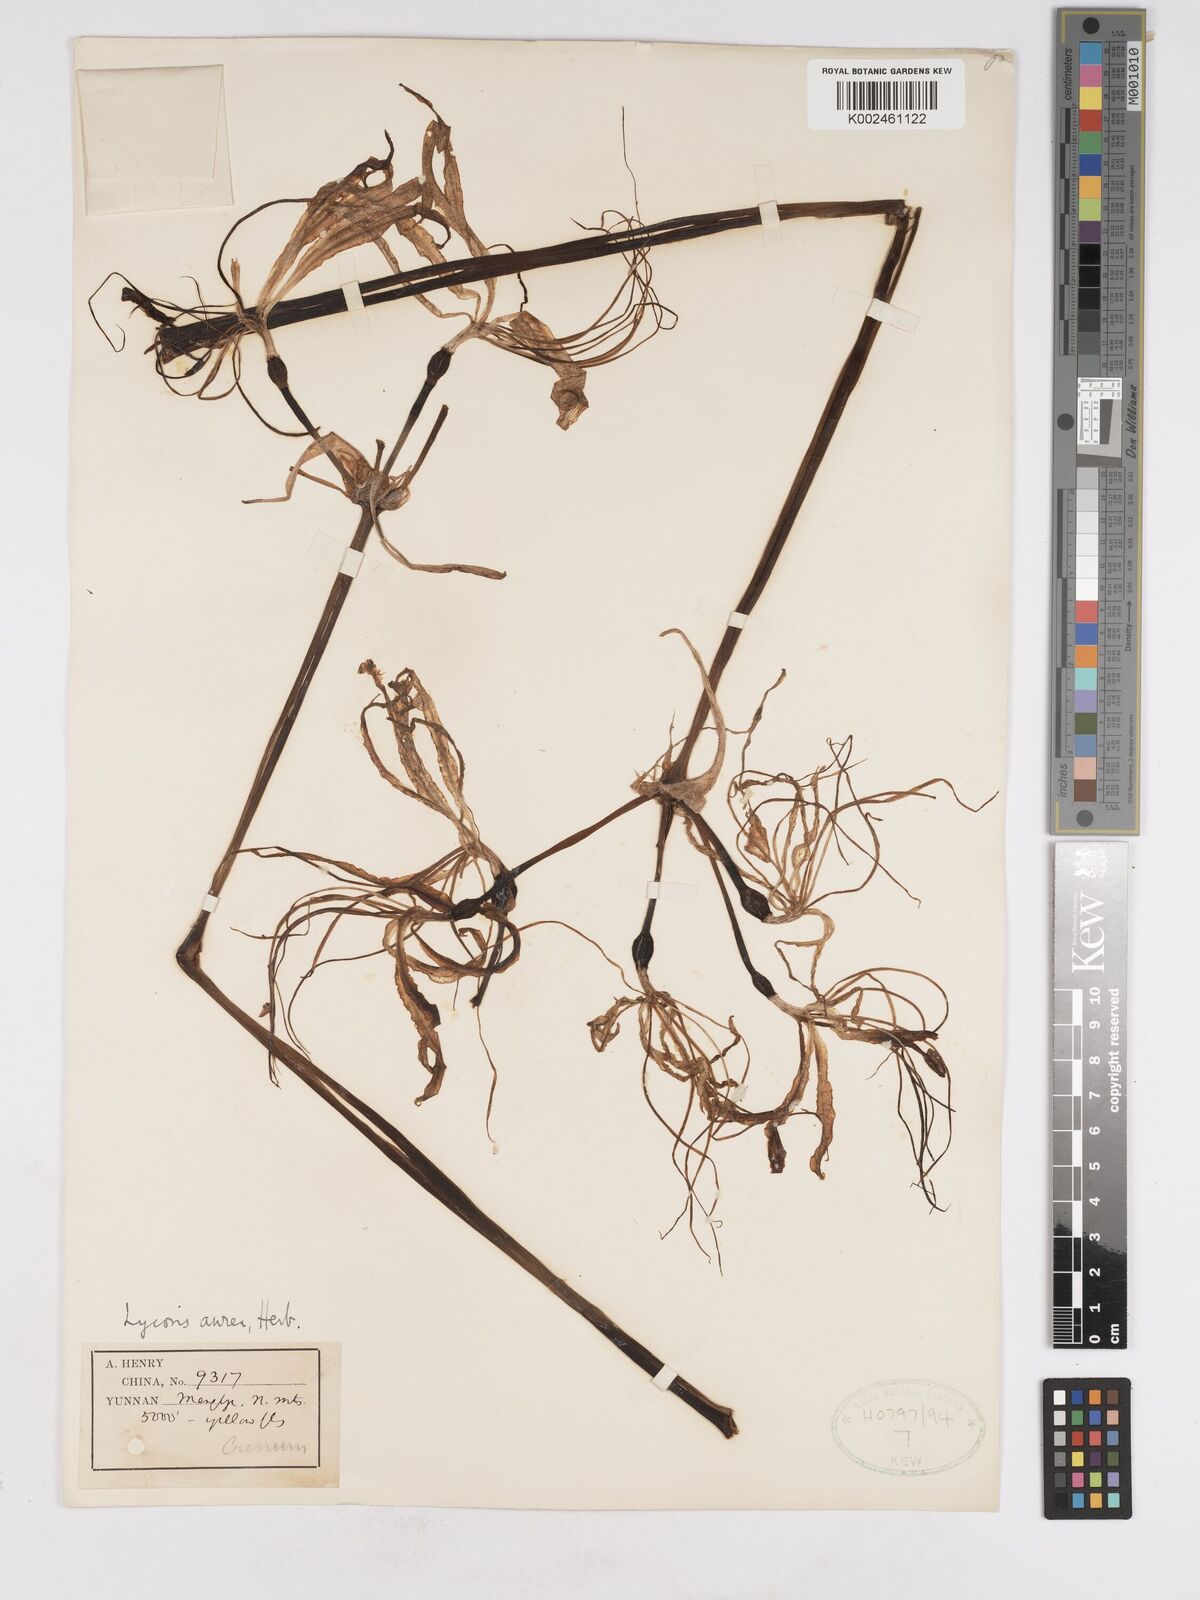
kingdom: Plantae
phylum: Tracheophyta
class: Liliopsida
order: Asparagales
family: Amaryllidaceae
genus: Lycoris
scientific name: Lycoris aurea
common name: Golden hurricane-lily
